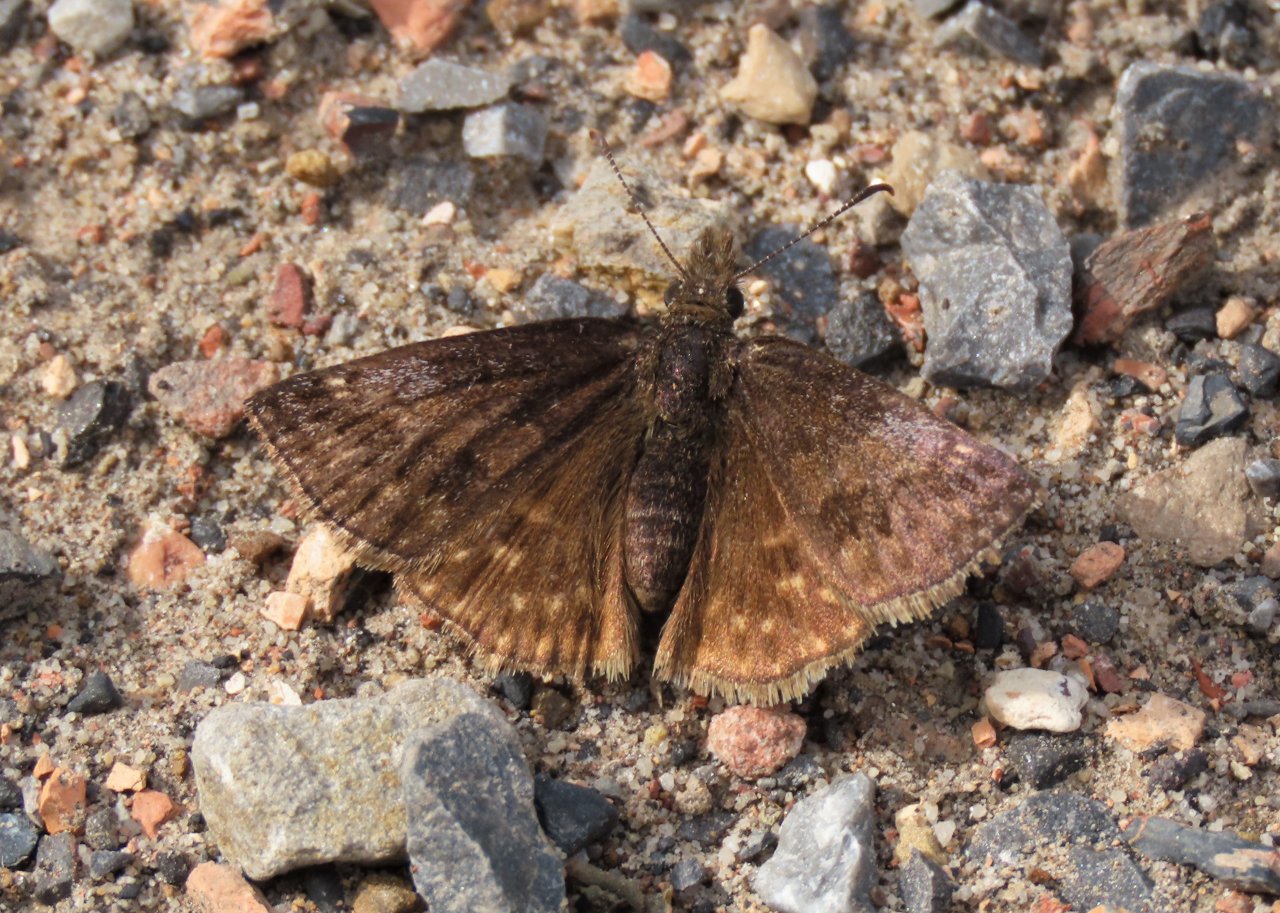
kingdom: Animalia
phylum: Arthropoda
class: Insecta
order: Lepidoptera
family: Hesperiidae
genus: Erynnis
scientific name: Erynnis icelus
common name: Dreamy Duskywing
